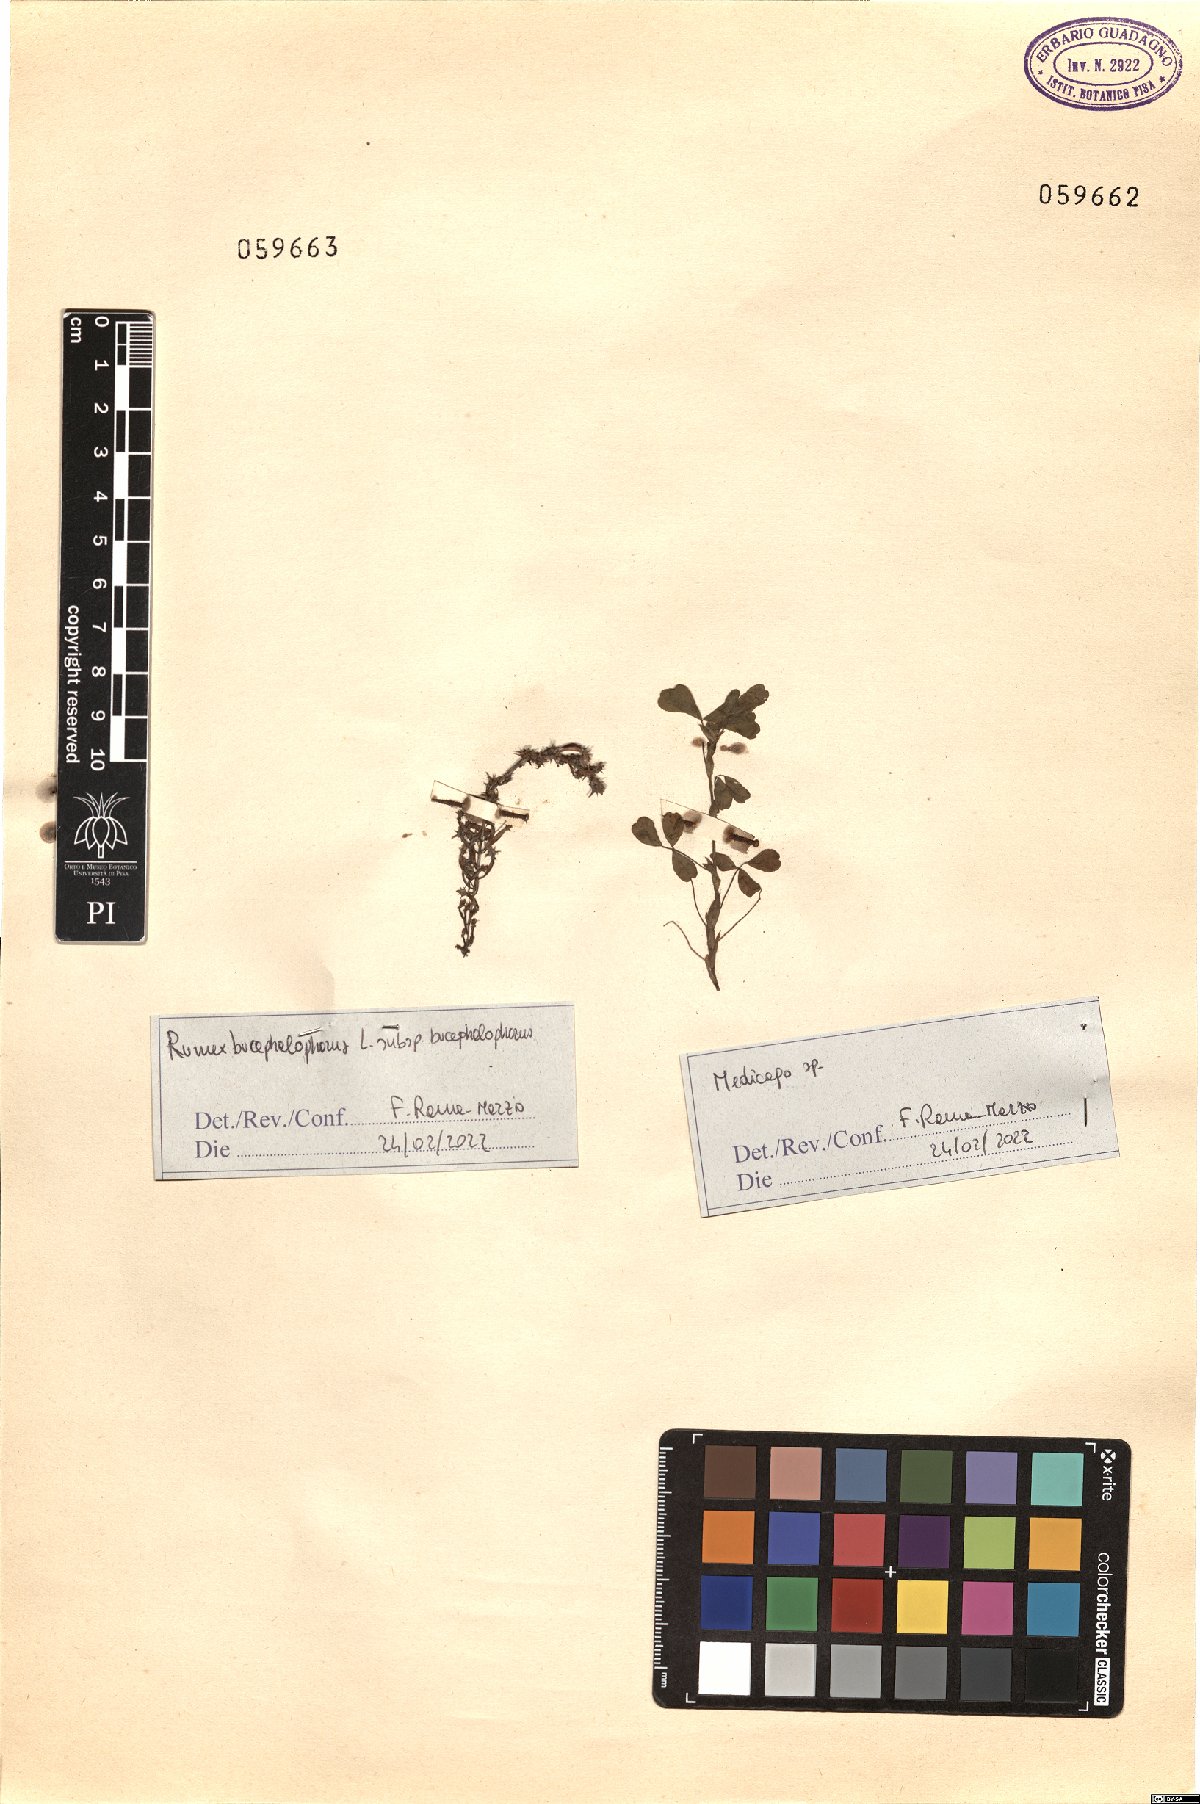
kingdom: Plantae
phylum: Tracheophyta
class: Magnoliopsida
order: Fabales
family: Fabaceae
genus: Medicago
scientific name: Medicago
